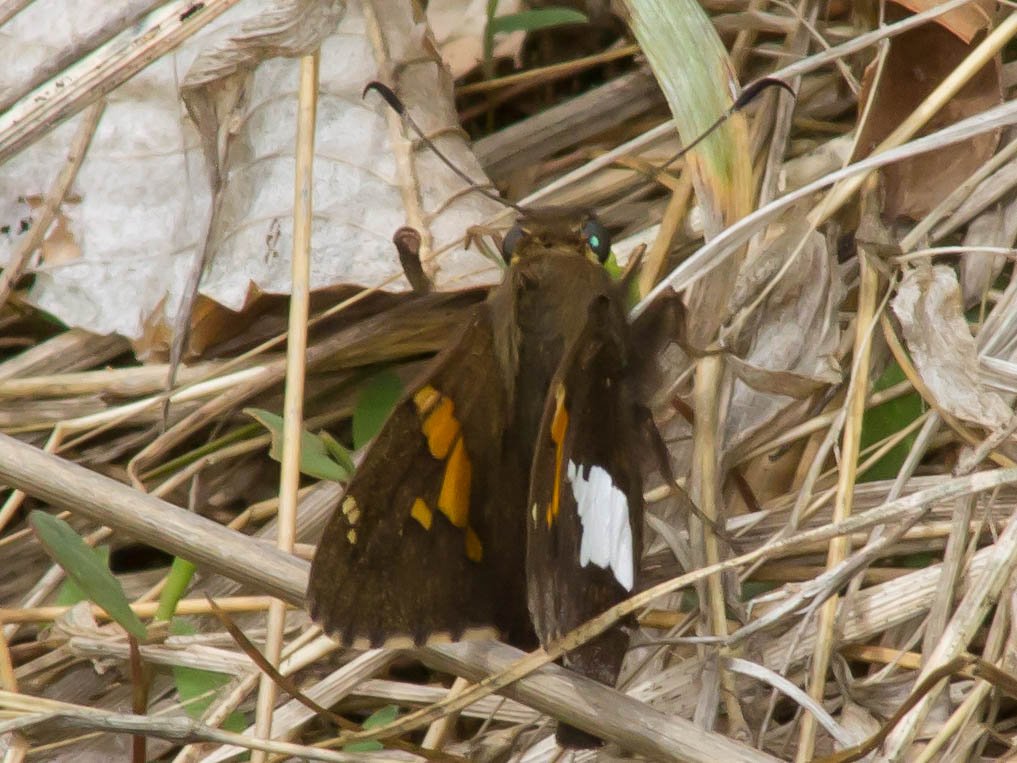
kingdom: Animalia
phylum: Arthropoda
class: Insecta
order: Lepidoptera
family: Hesperiidae
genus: Epargyreus
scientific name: Epargyreus clarus
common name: Silver-spotted Skipper
